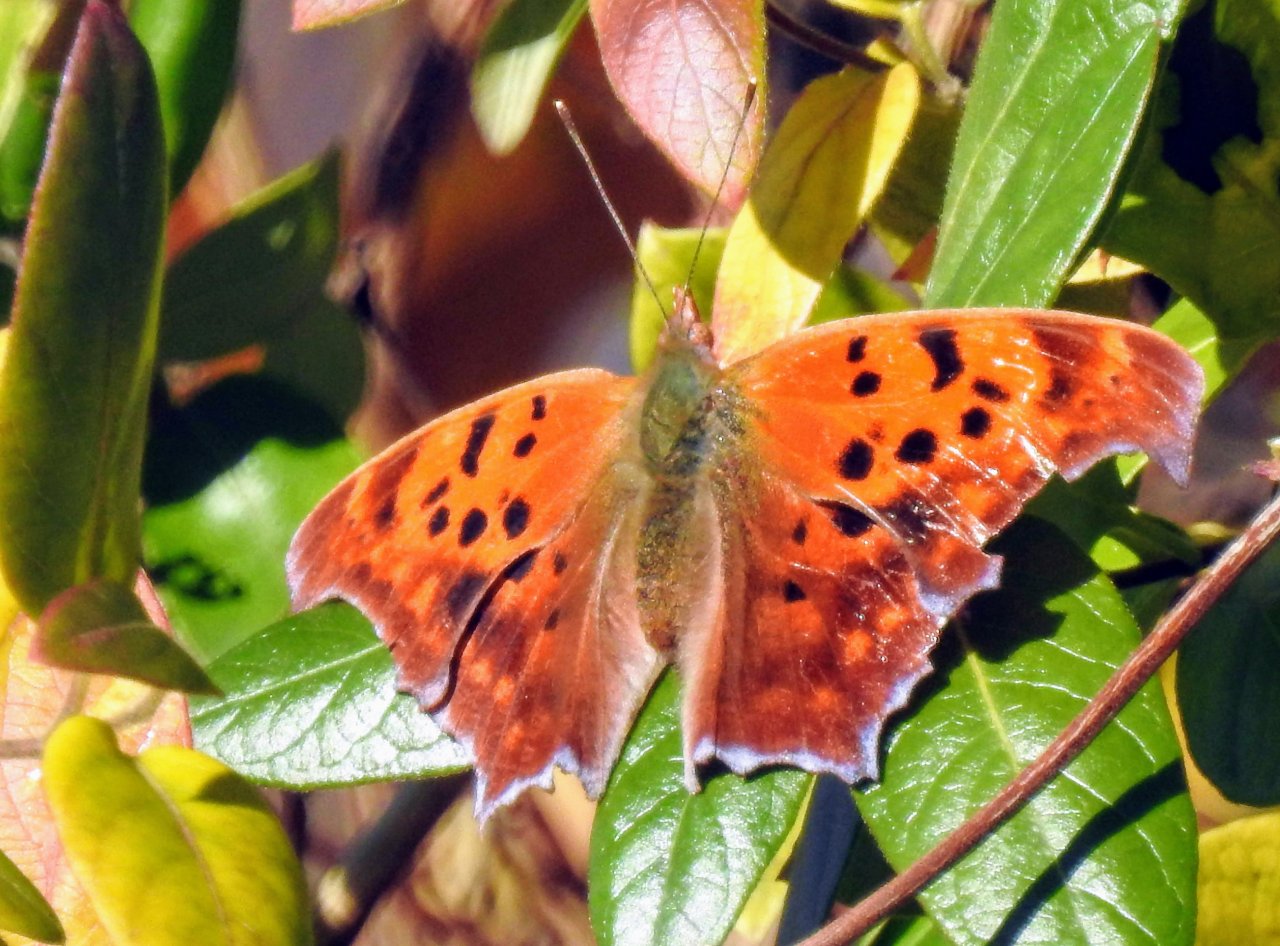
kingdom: Animalia
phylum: Arthropoda
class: Insecta
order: Lepidoptera
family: Nymphalidae
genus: Polygonia
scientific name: Polygonia interrogationis
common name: Question Mark
